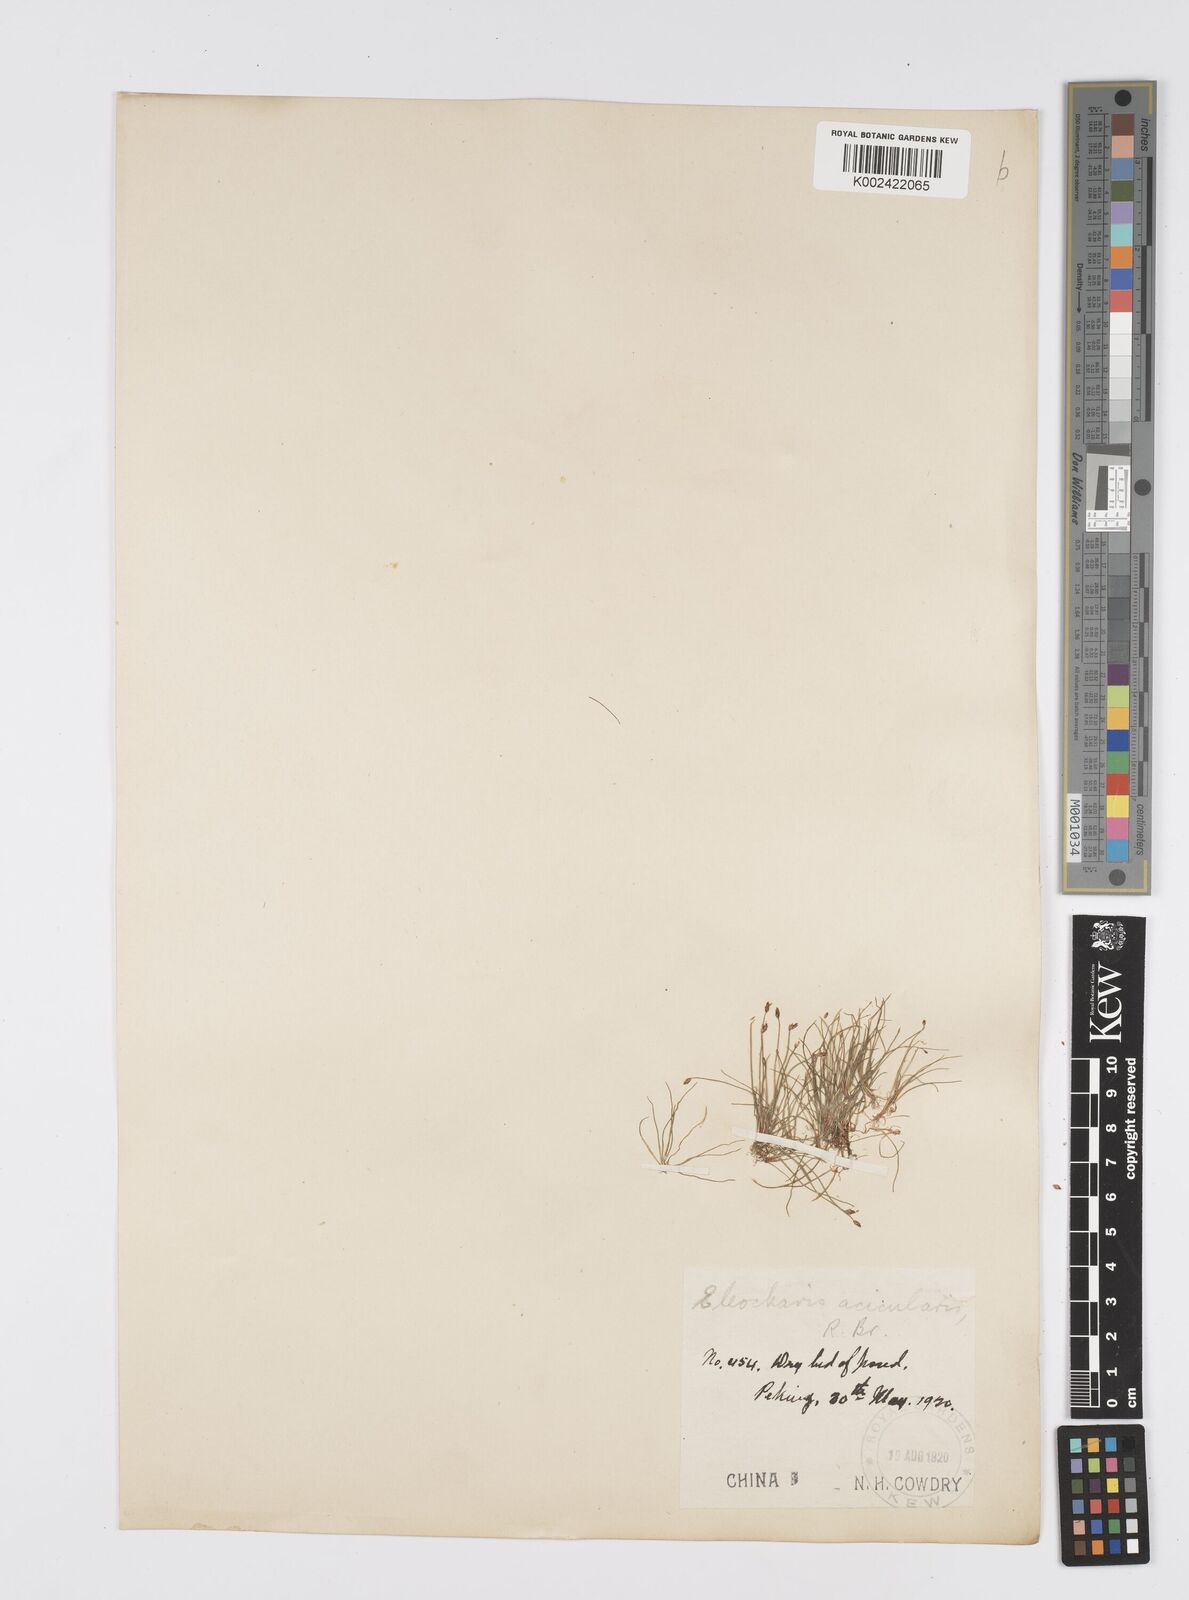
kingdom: Plantae
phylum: Tracheophyta
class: Liliopsida
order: Poales
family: Cyperaceae
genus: Eleocharis
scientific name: Eleocharis acicularis
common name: Needle spike-rush
